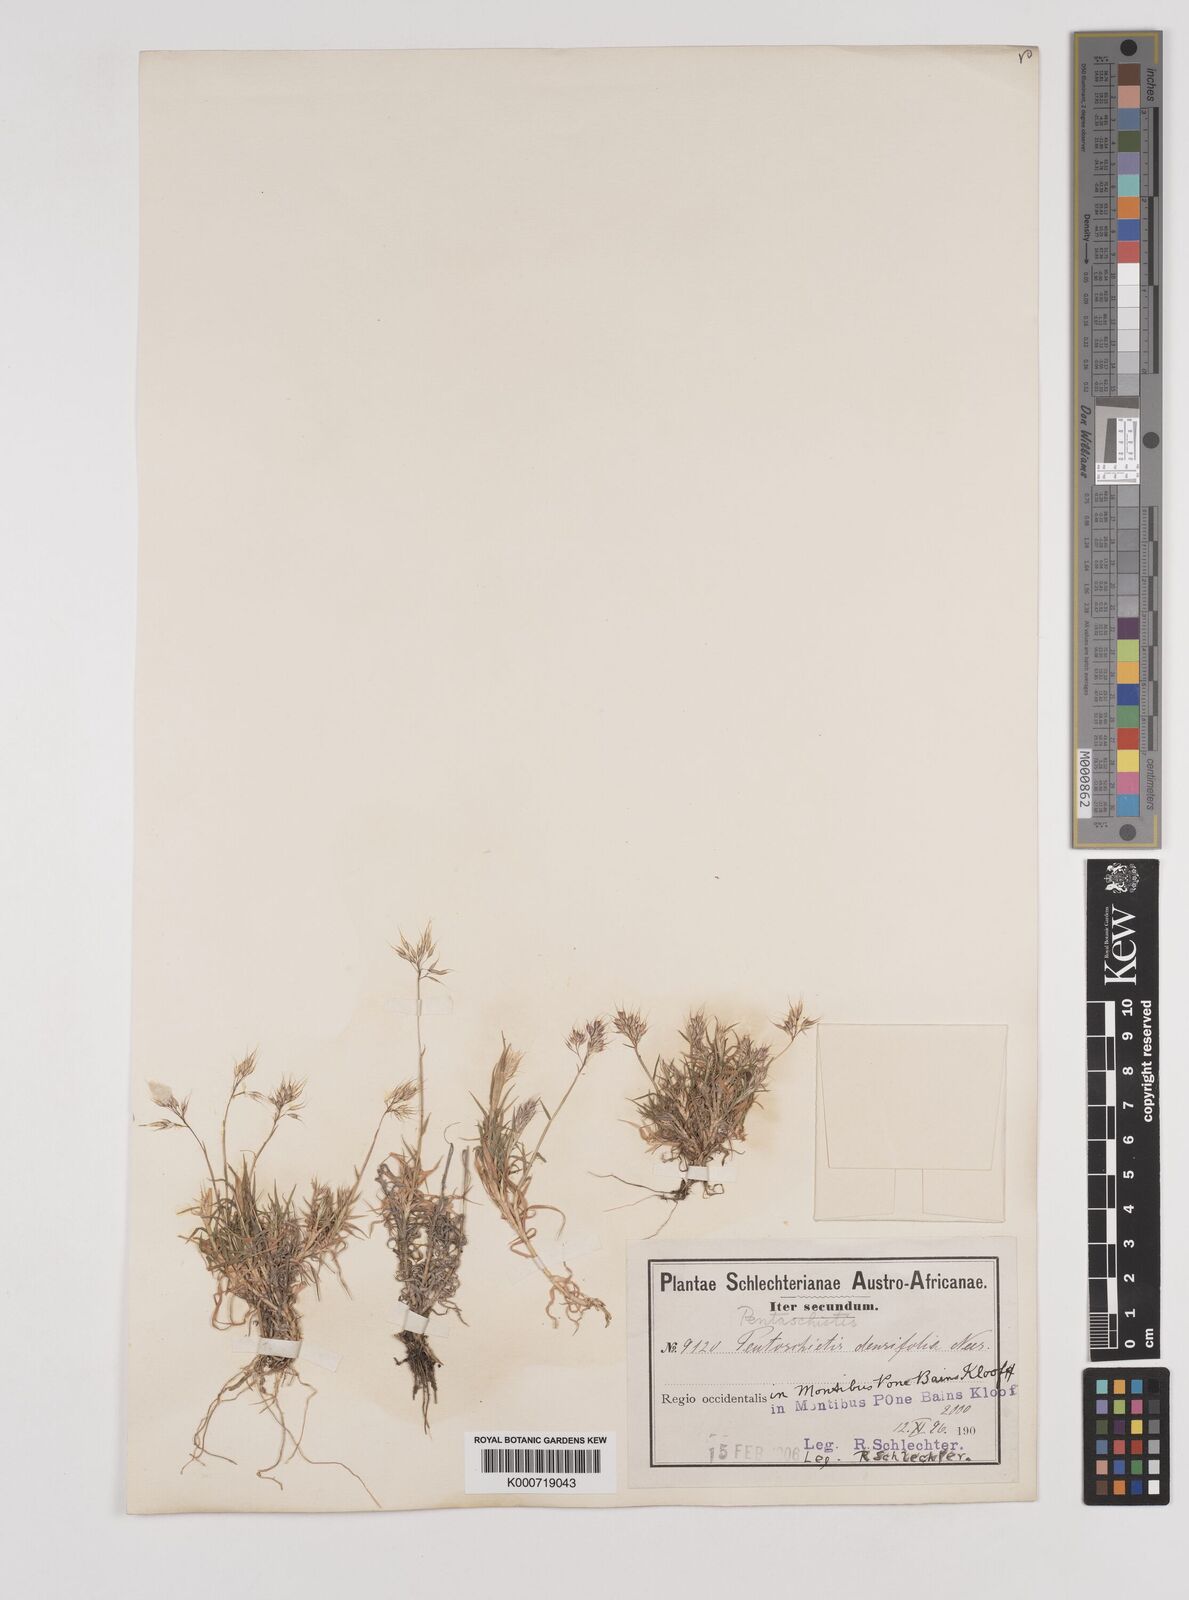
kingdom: Plantae
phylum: Tracheophyta
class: Liliopsida
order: Poales
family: Poaceae
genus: Pentameris
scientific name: Pentameris densifolia
